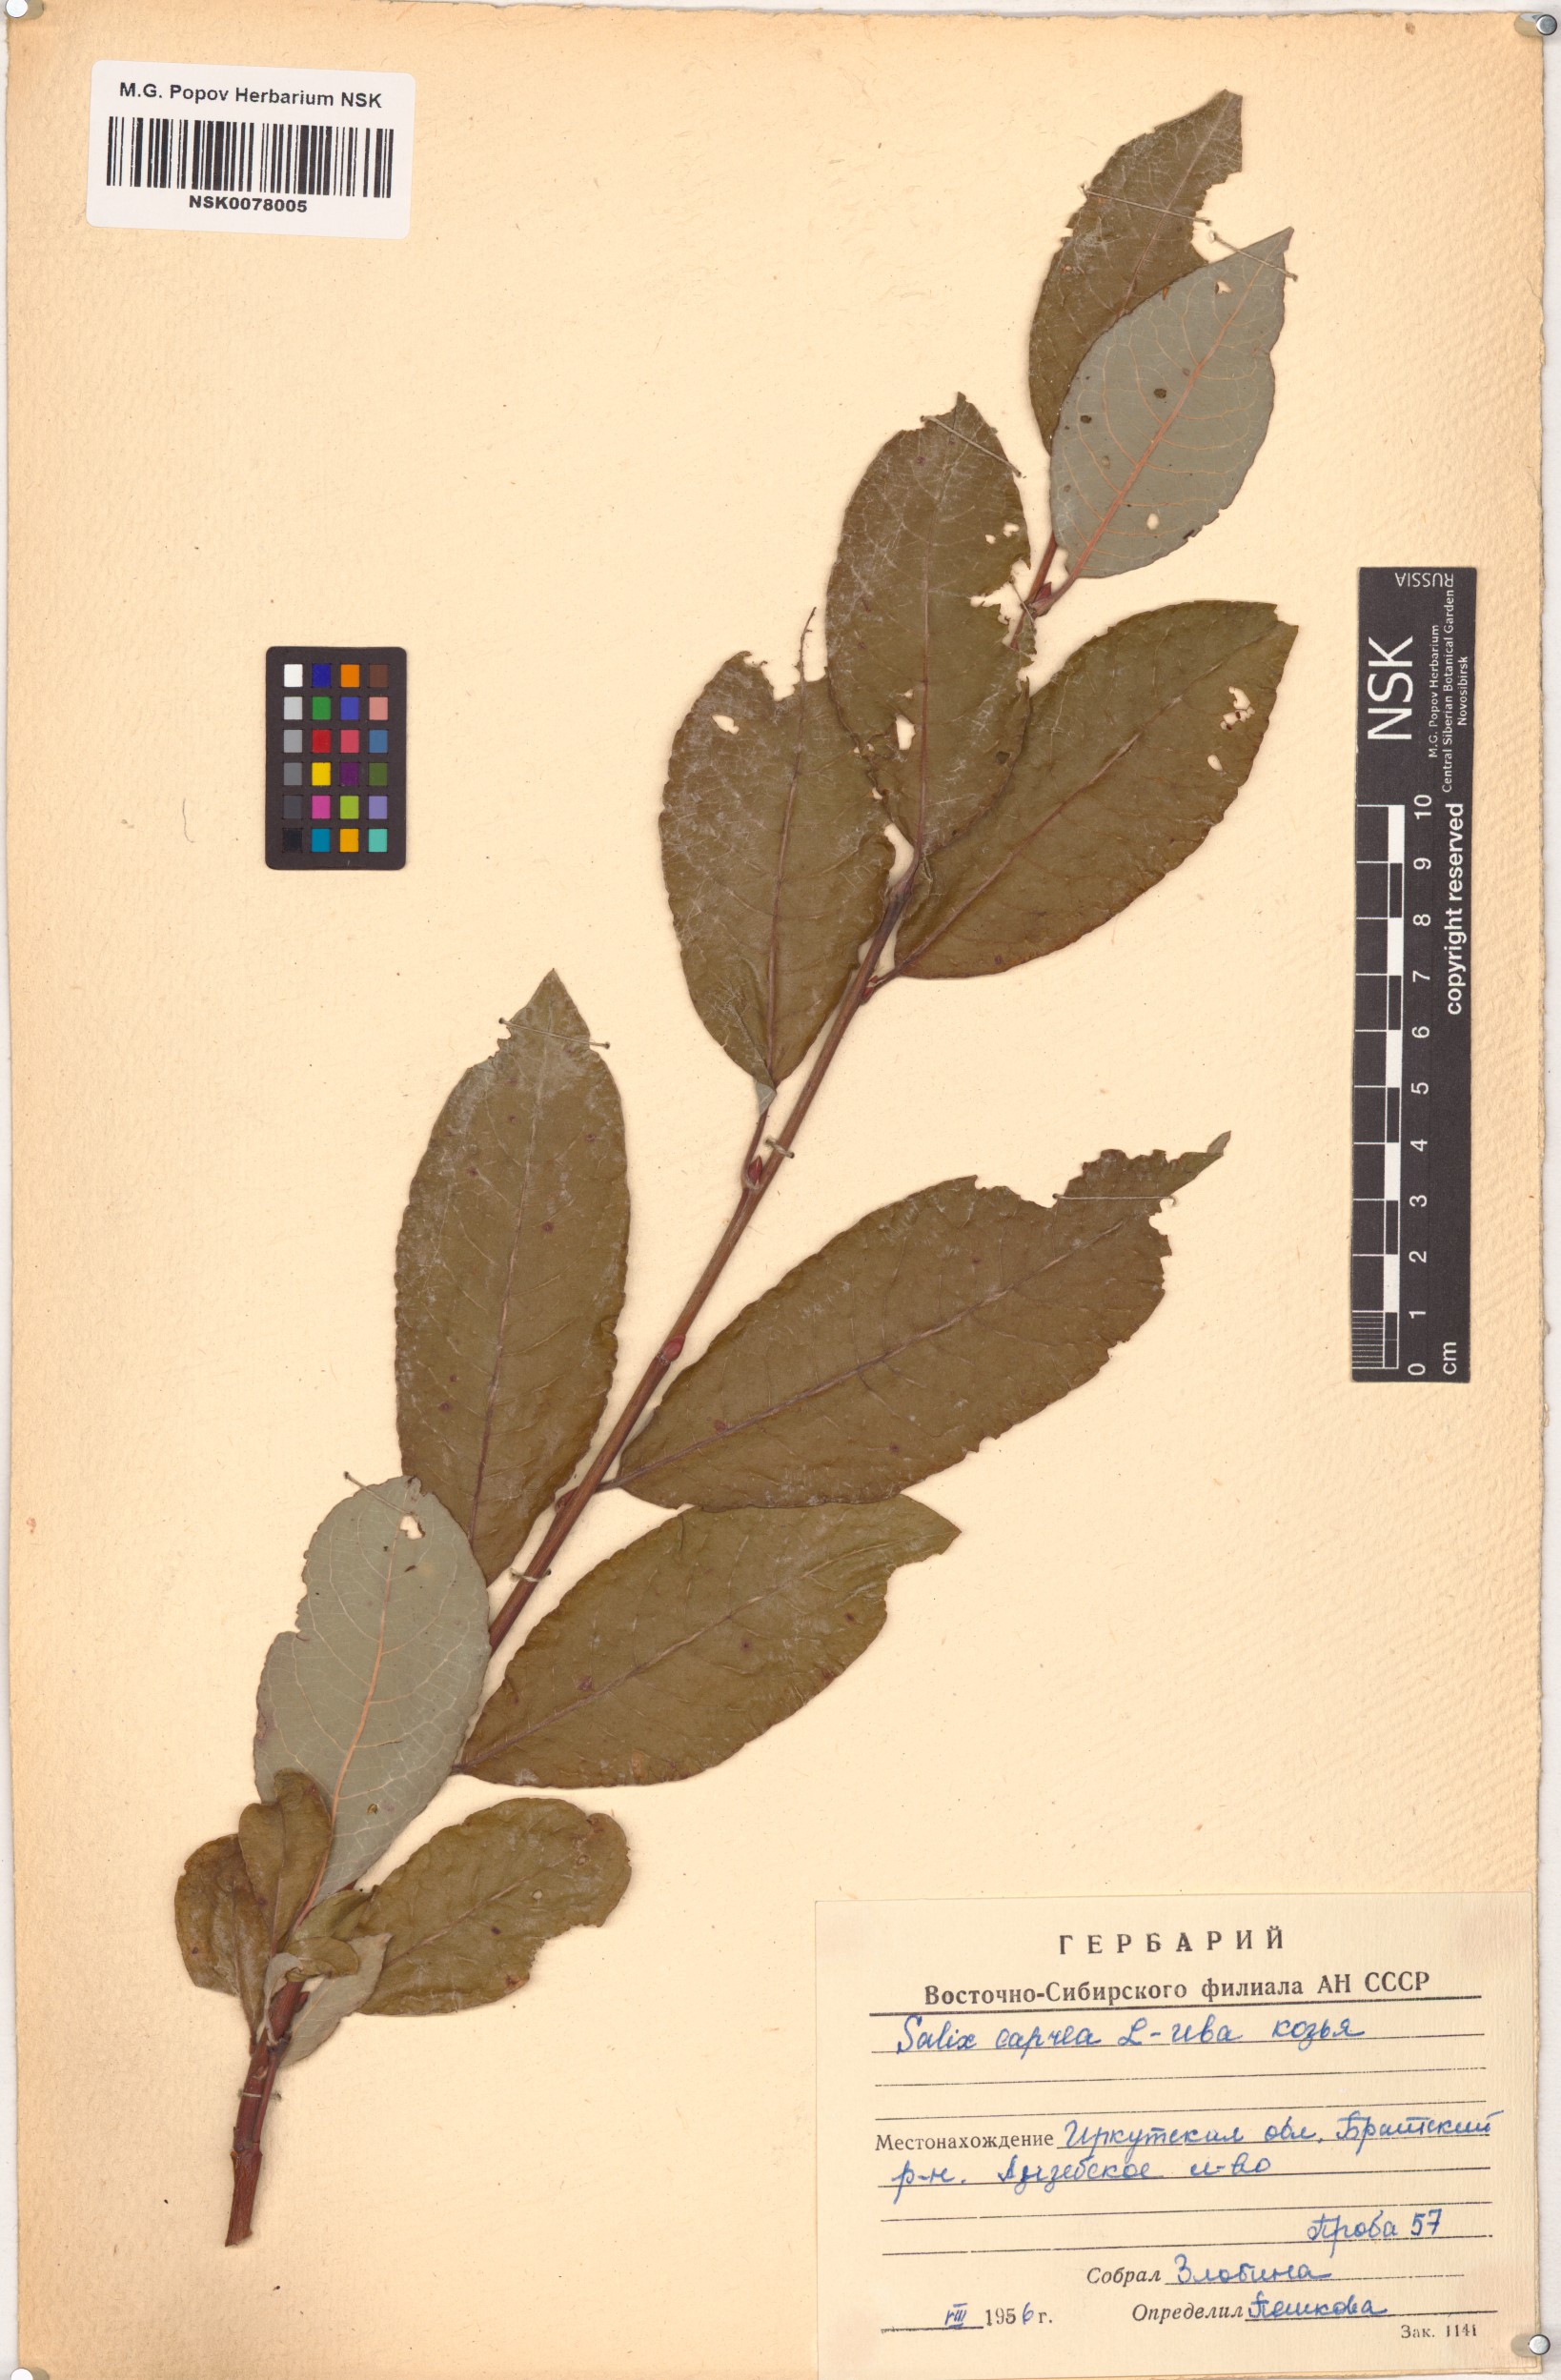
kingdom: Plantae
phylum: Tracheophyta
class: Magnoliopsida
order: Malpighiales
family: Salicaceae
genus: Salix
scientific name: Salix caprea
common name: Goat willow
